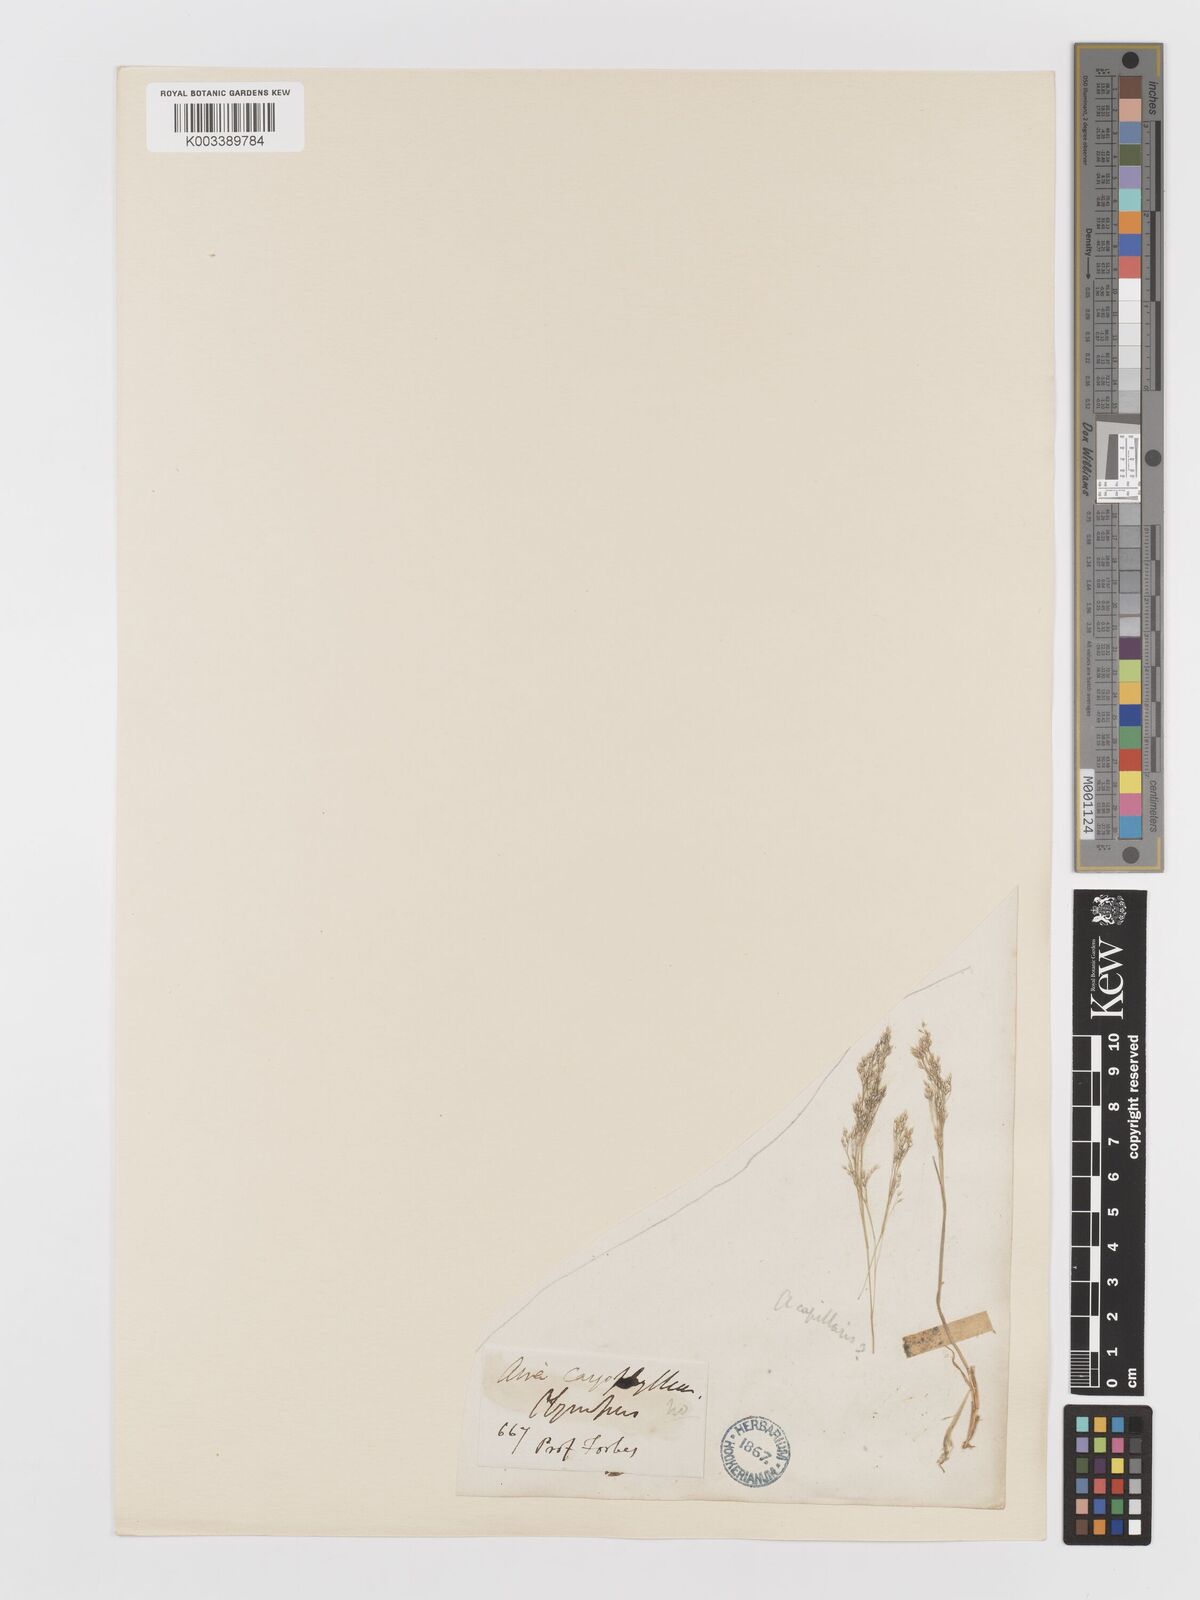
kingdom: Plantae
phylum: Tracheophyta
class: Liliopsida
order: Poales
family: Poaceae
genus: Aira
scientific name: Aira cupaniana
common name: Silver hairgrass
